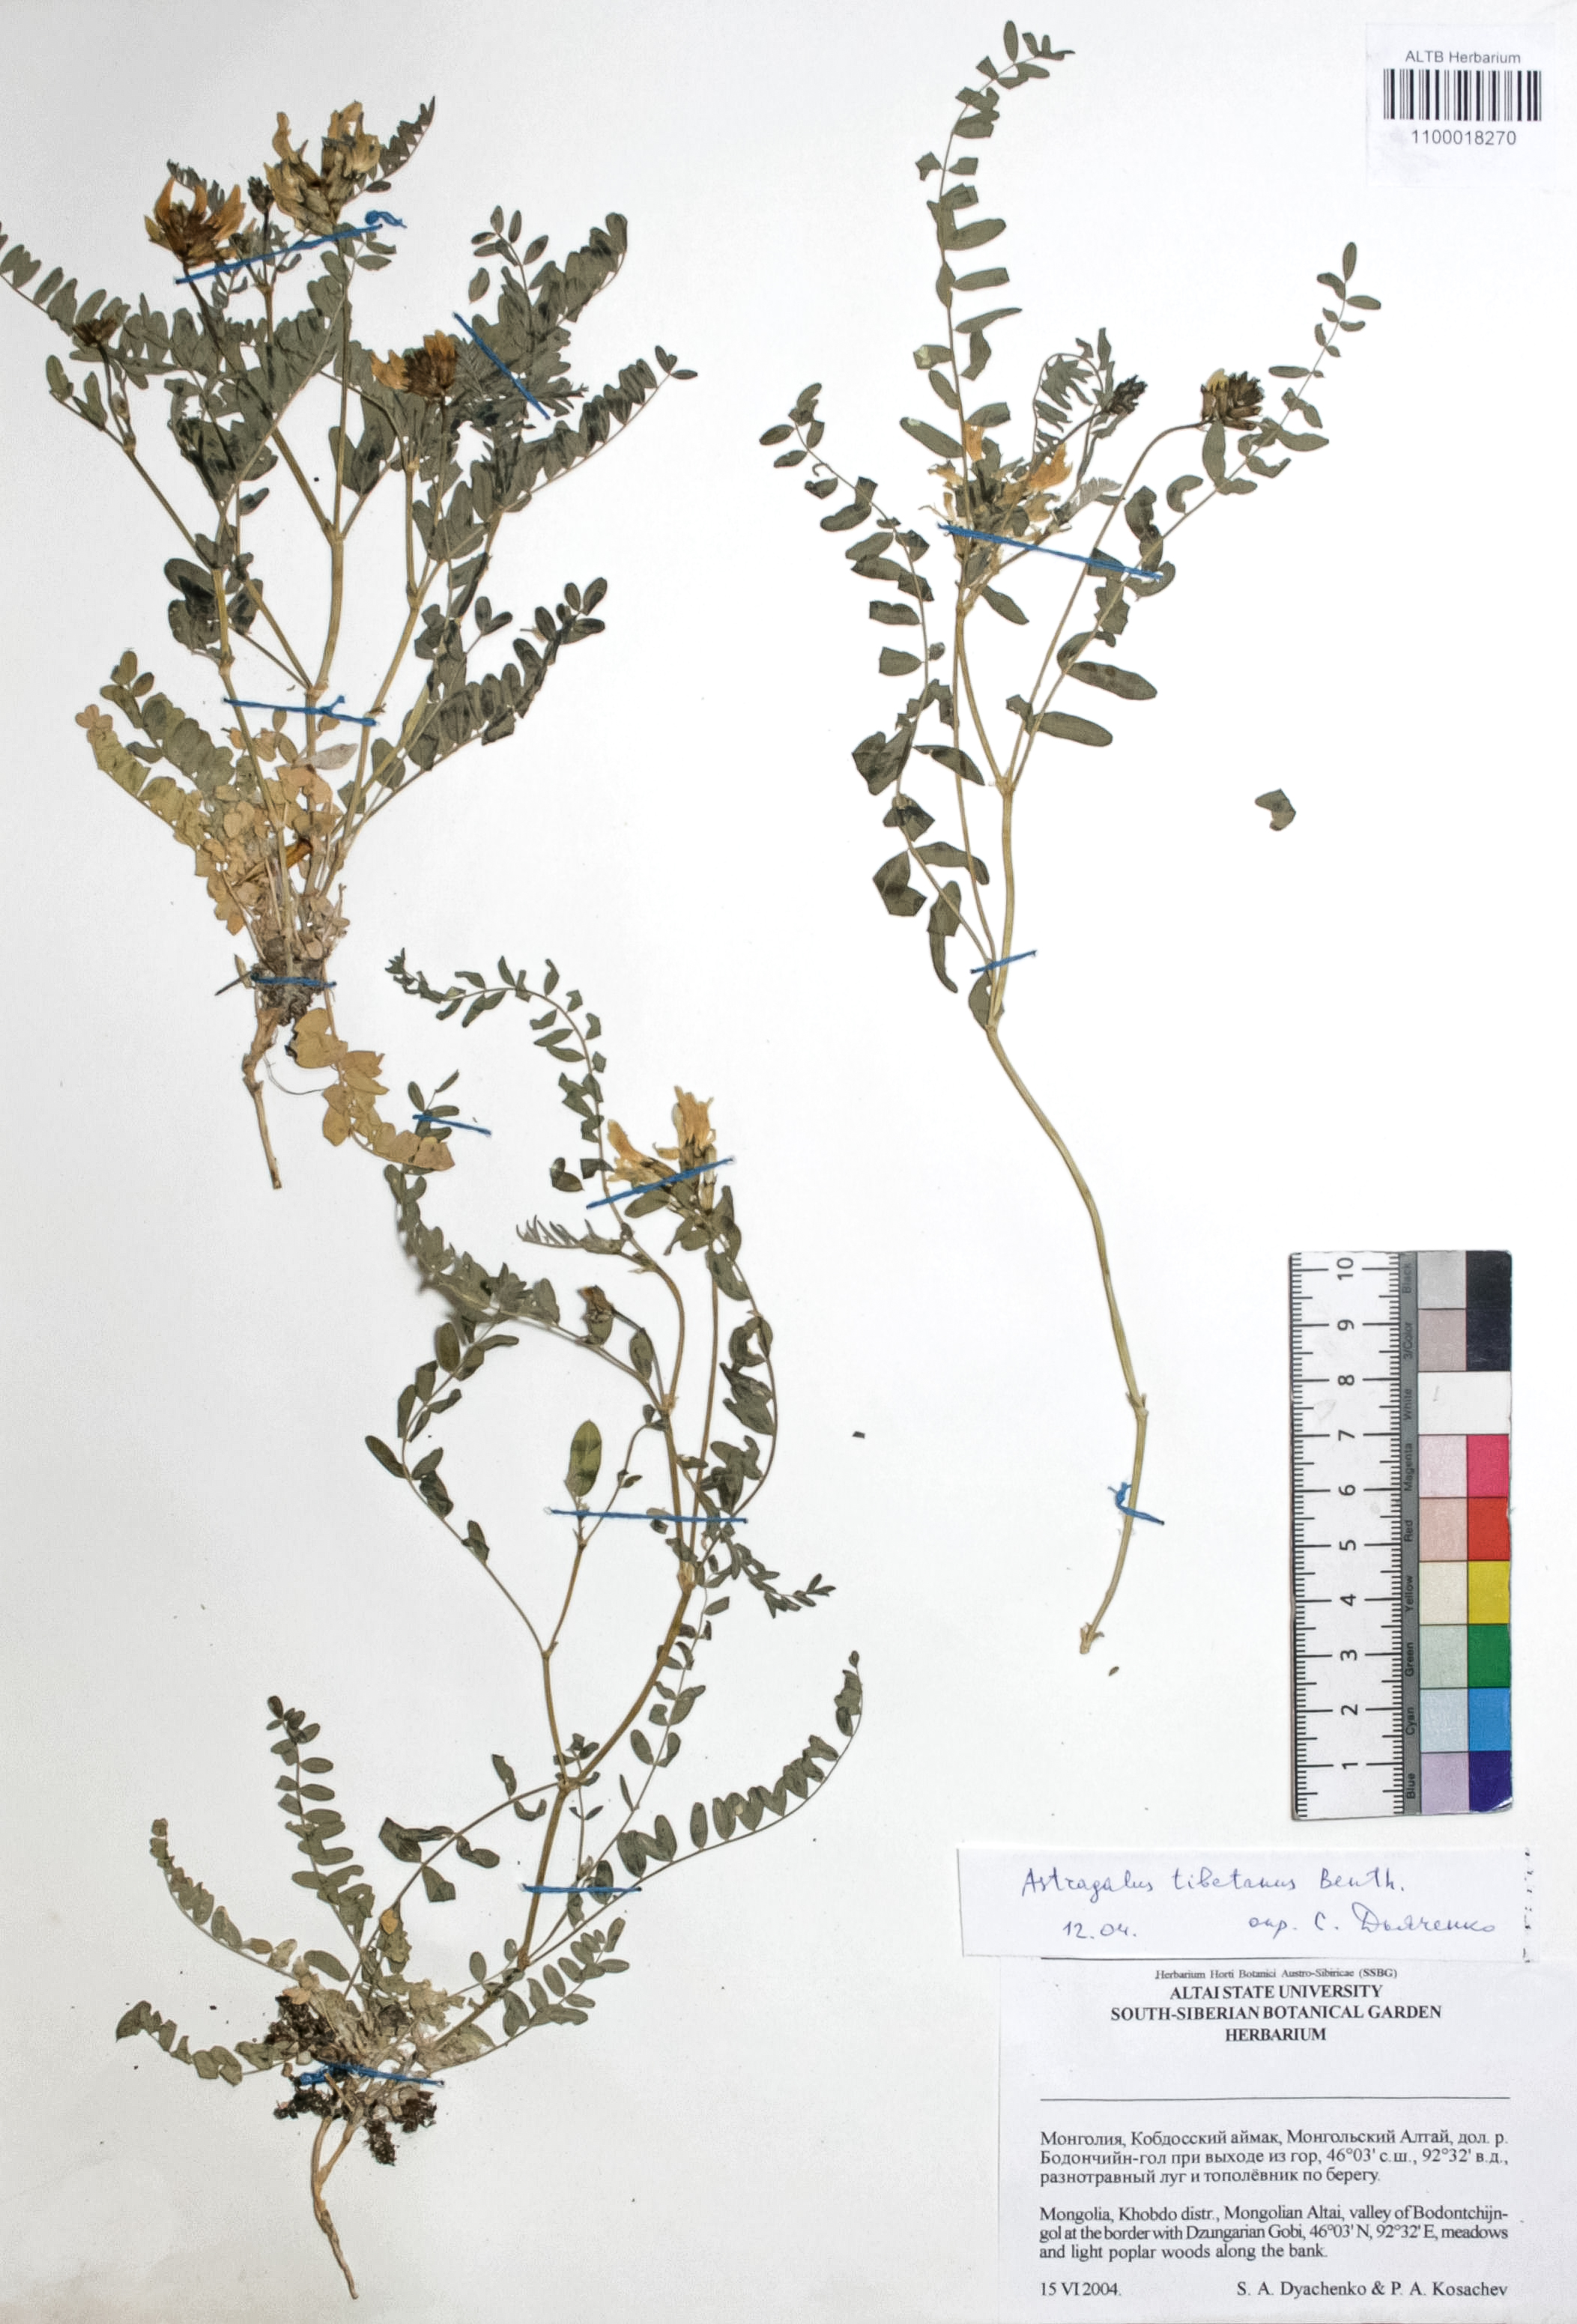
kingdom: Plantae
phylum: Tracheophyta
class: Magnoliopsida
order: Fabales
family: Fabaceae
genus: Astragalus
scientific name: Astragalus tibetanus
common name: Tibet milkvetch
